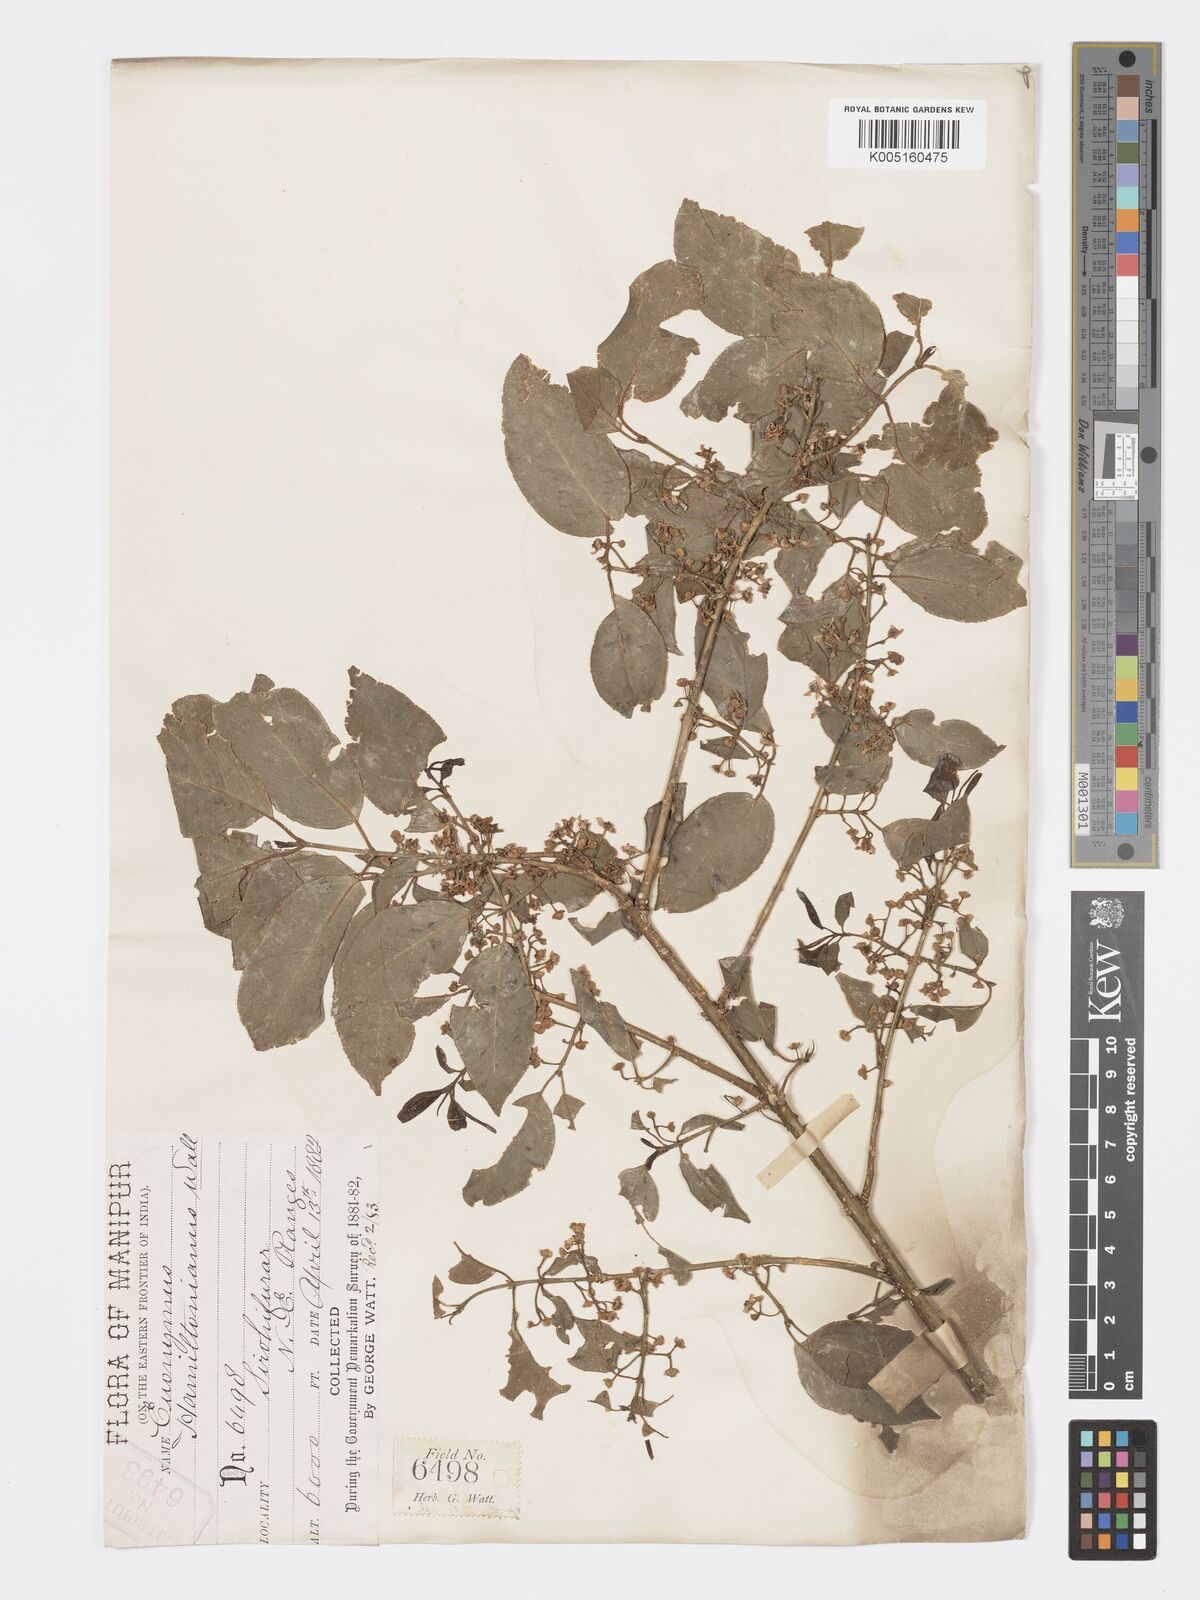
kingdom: Plantae
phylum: Tracheophyta
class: Magnoliopsida
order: Celastrales
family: Celastraceae
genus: Euonymus
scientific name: Euonymus
